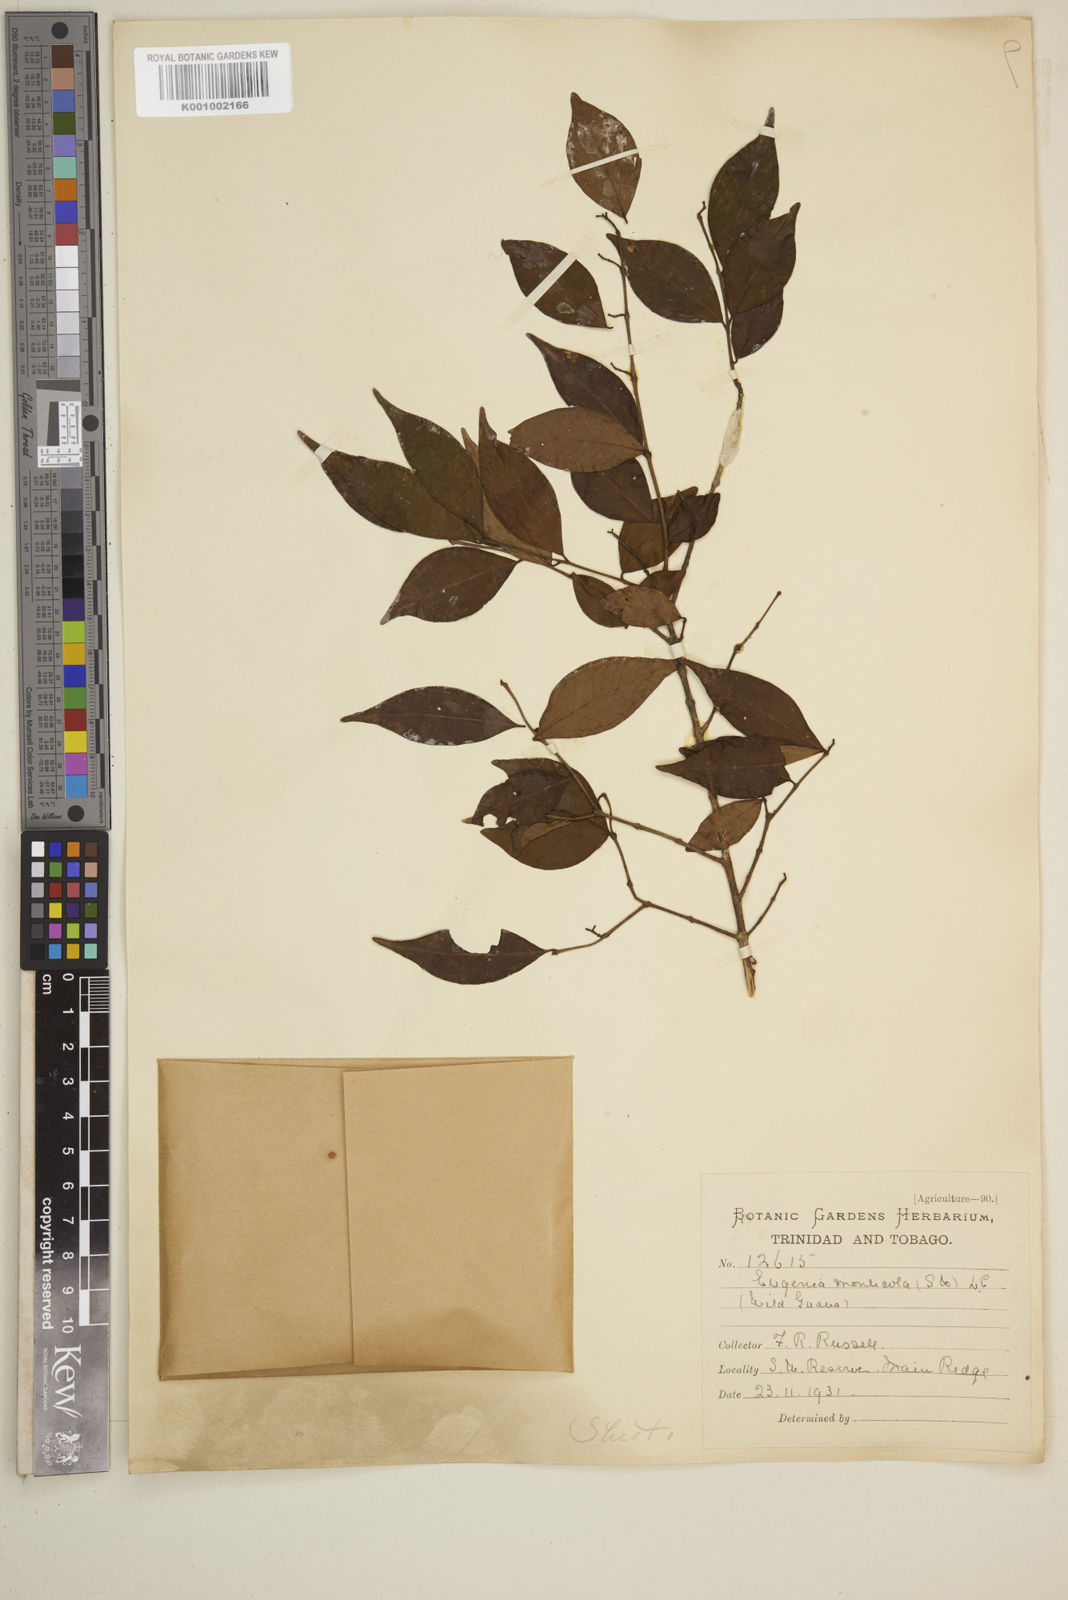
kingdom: Plantae
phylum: Tracheophyta
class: Magnoliopsida
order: Myrtales
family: Myrtaceae
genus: Eugenia
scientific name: Eugenia monticola
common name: Birds berry
